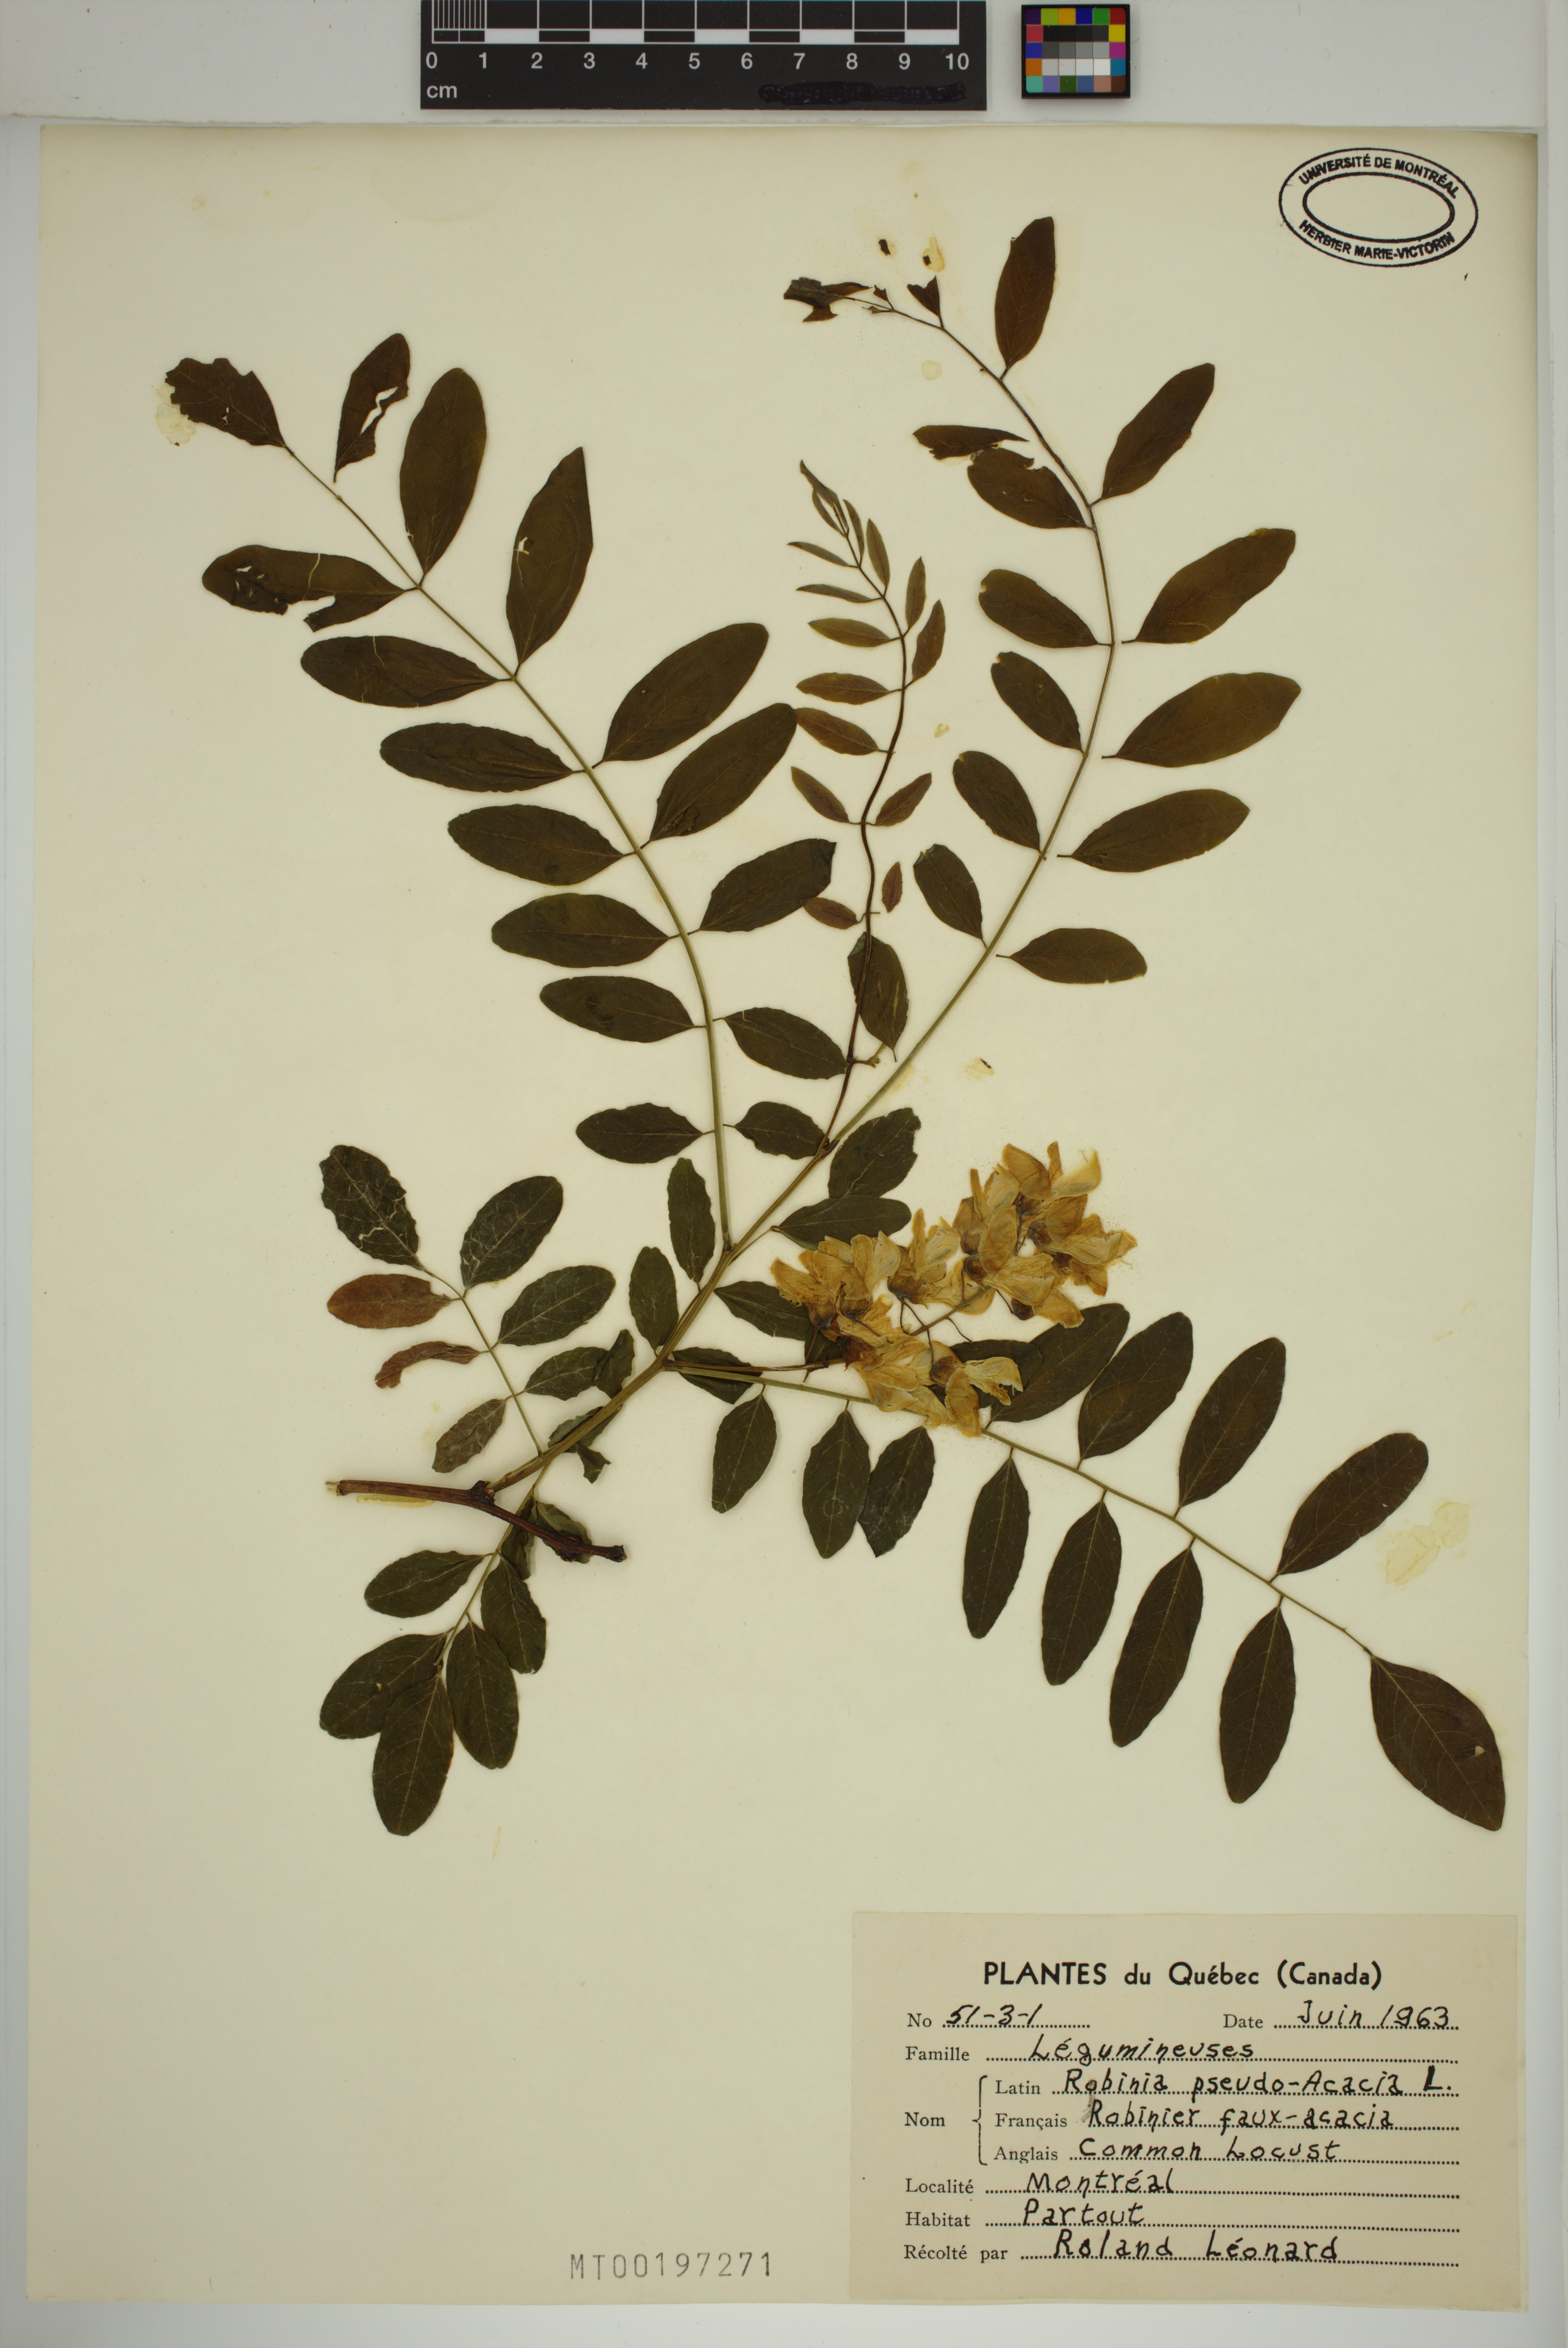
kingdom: Plantae
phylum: Tracheophyta
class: Magnoliopsida
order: Fabales
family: Fabaceae
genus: Robinia
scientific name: Robinia pseudoacacia
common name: Black locust
